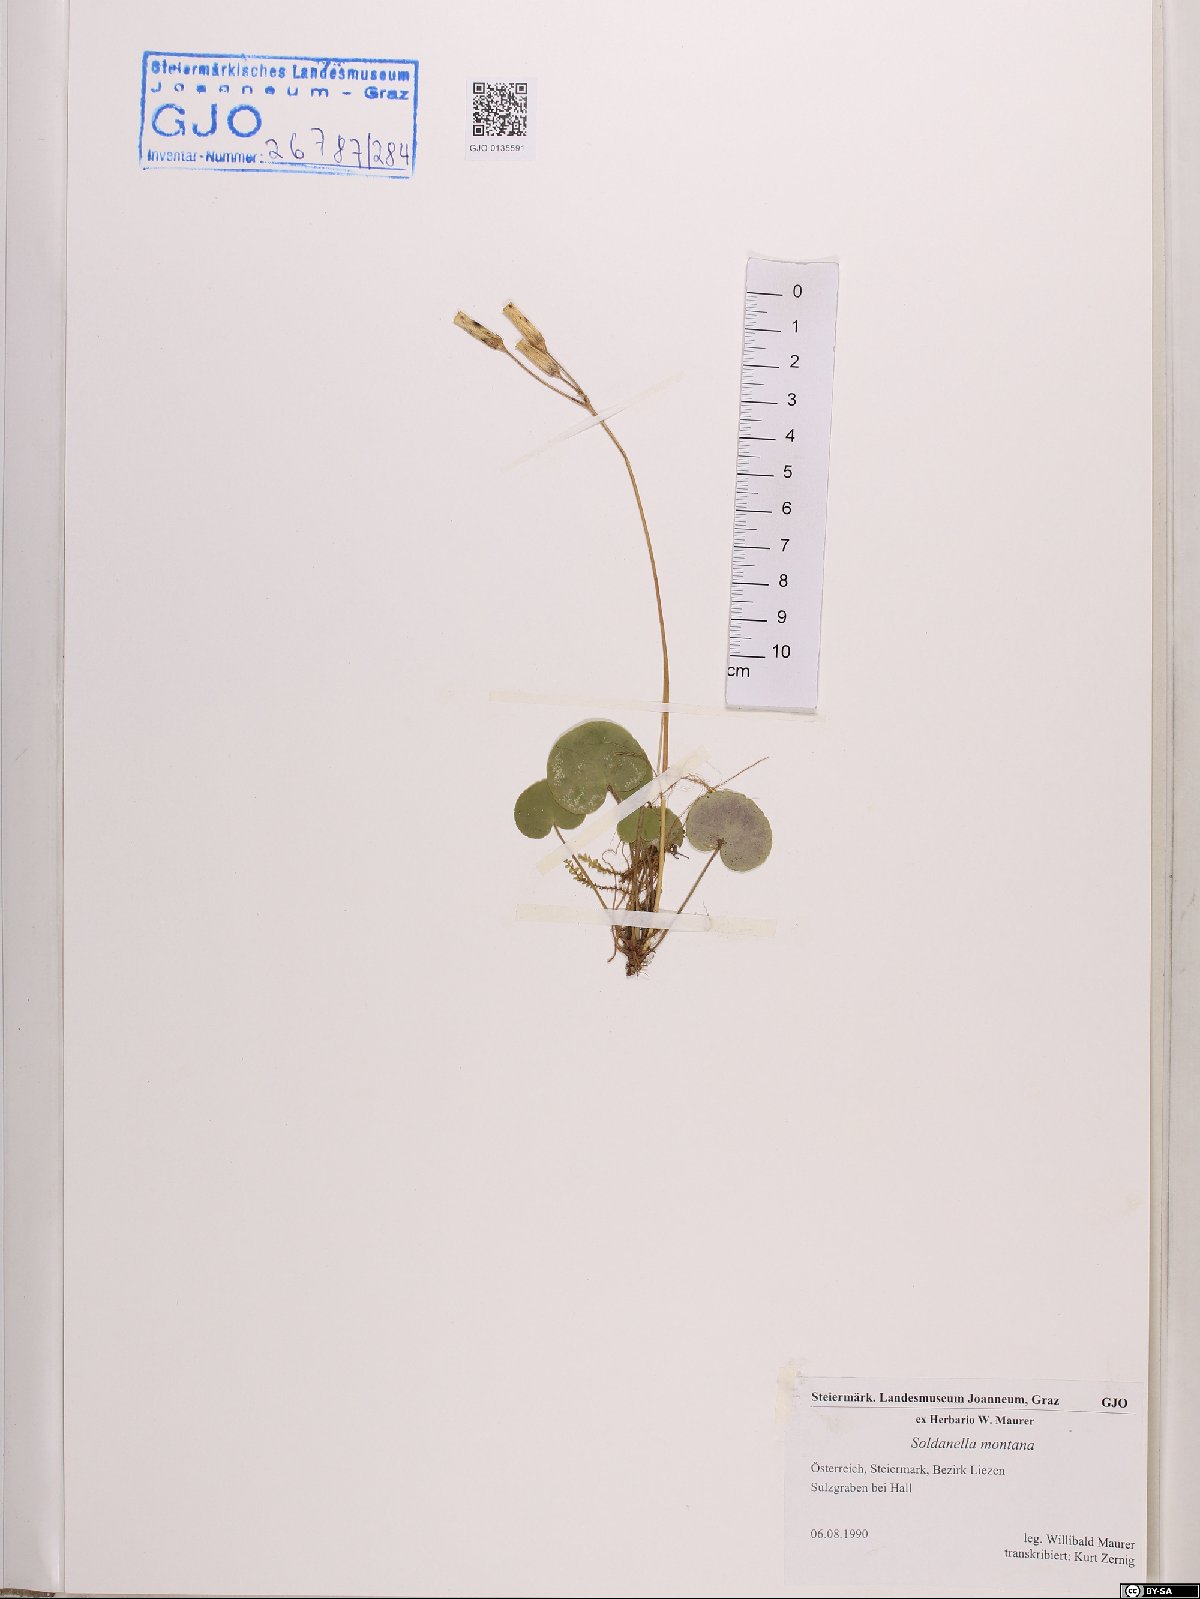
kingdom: Plantae
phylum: Tracheophyta
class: Magnoliopsida
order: Ericales
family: Primulaceae
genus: Soldanella
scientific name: Soldanella montana
